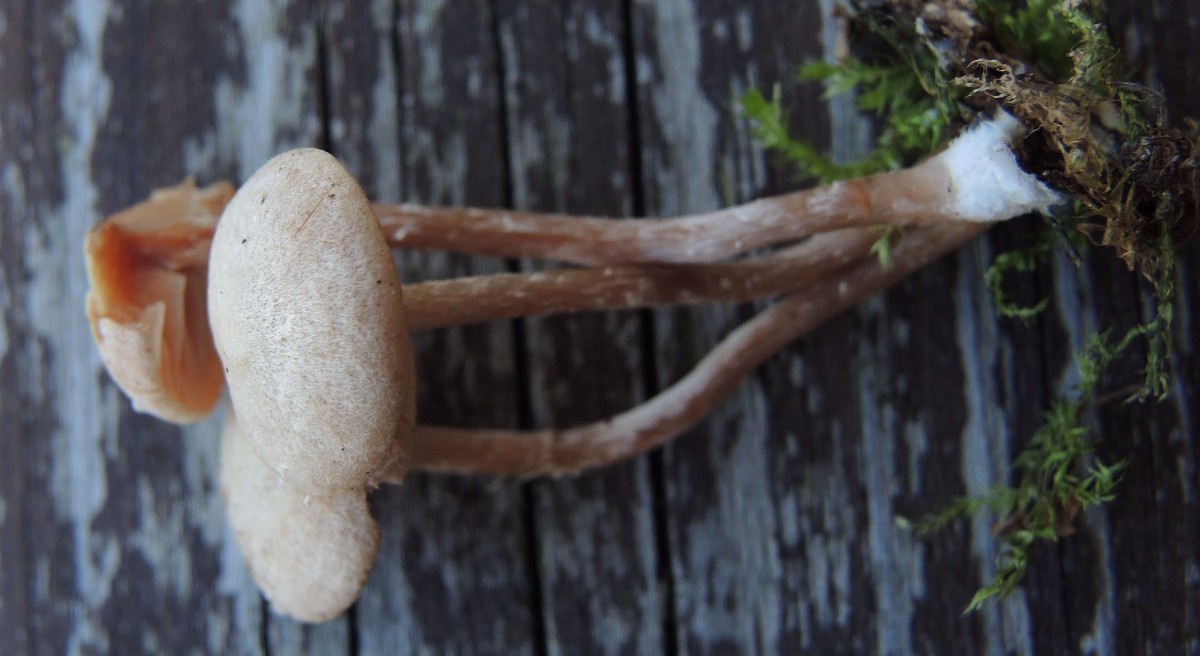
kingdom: Fungi
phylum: Basidiomycota
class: Agaricomycetes
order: Agaricales
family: Tubariaceae
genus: Tubaria
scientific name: Tubaria conspersa
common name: bleg fnughat
